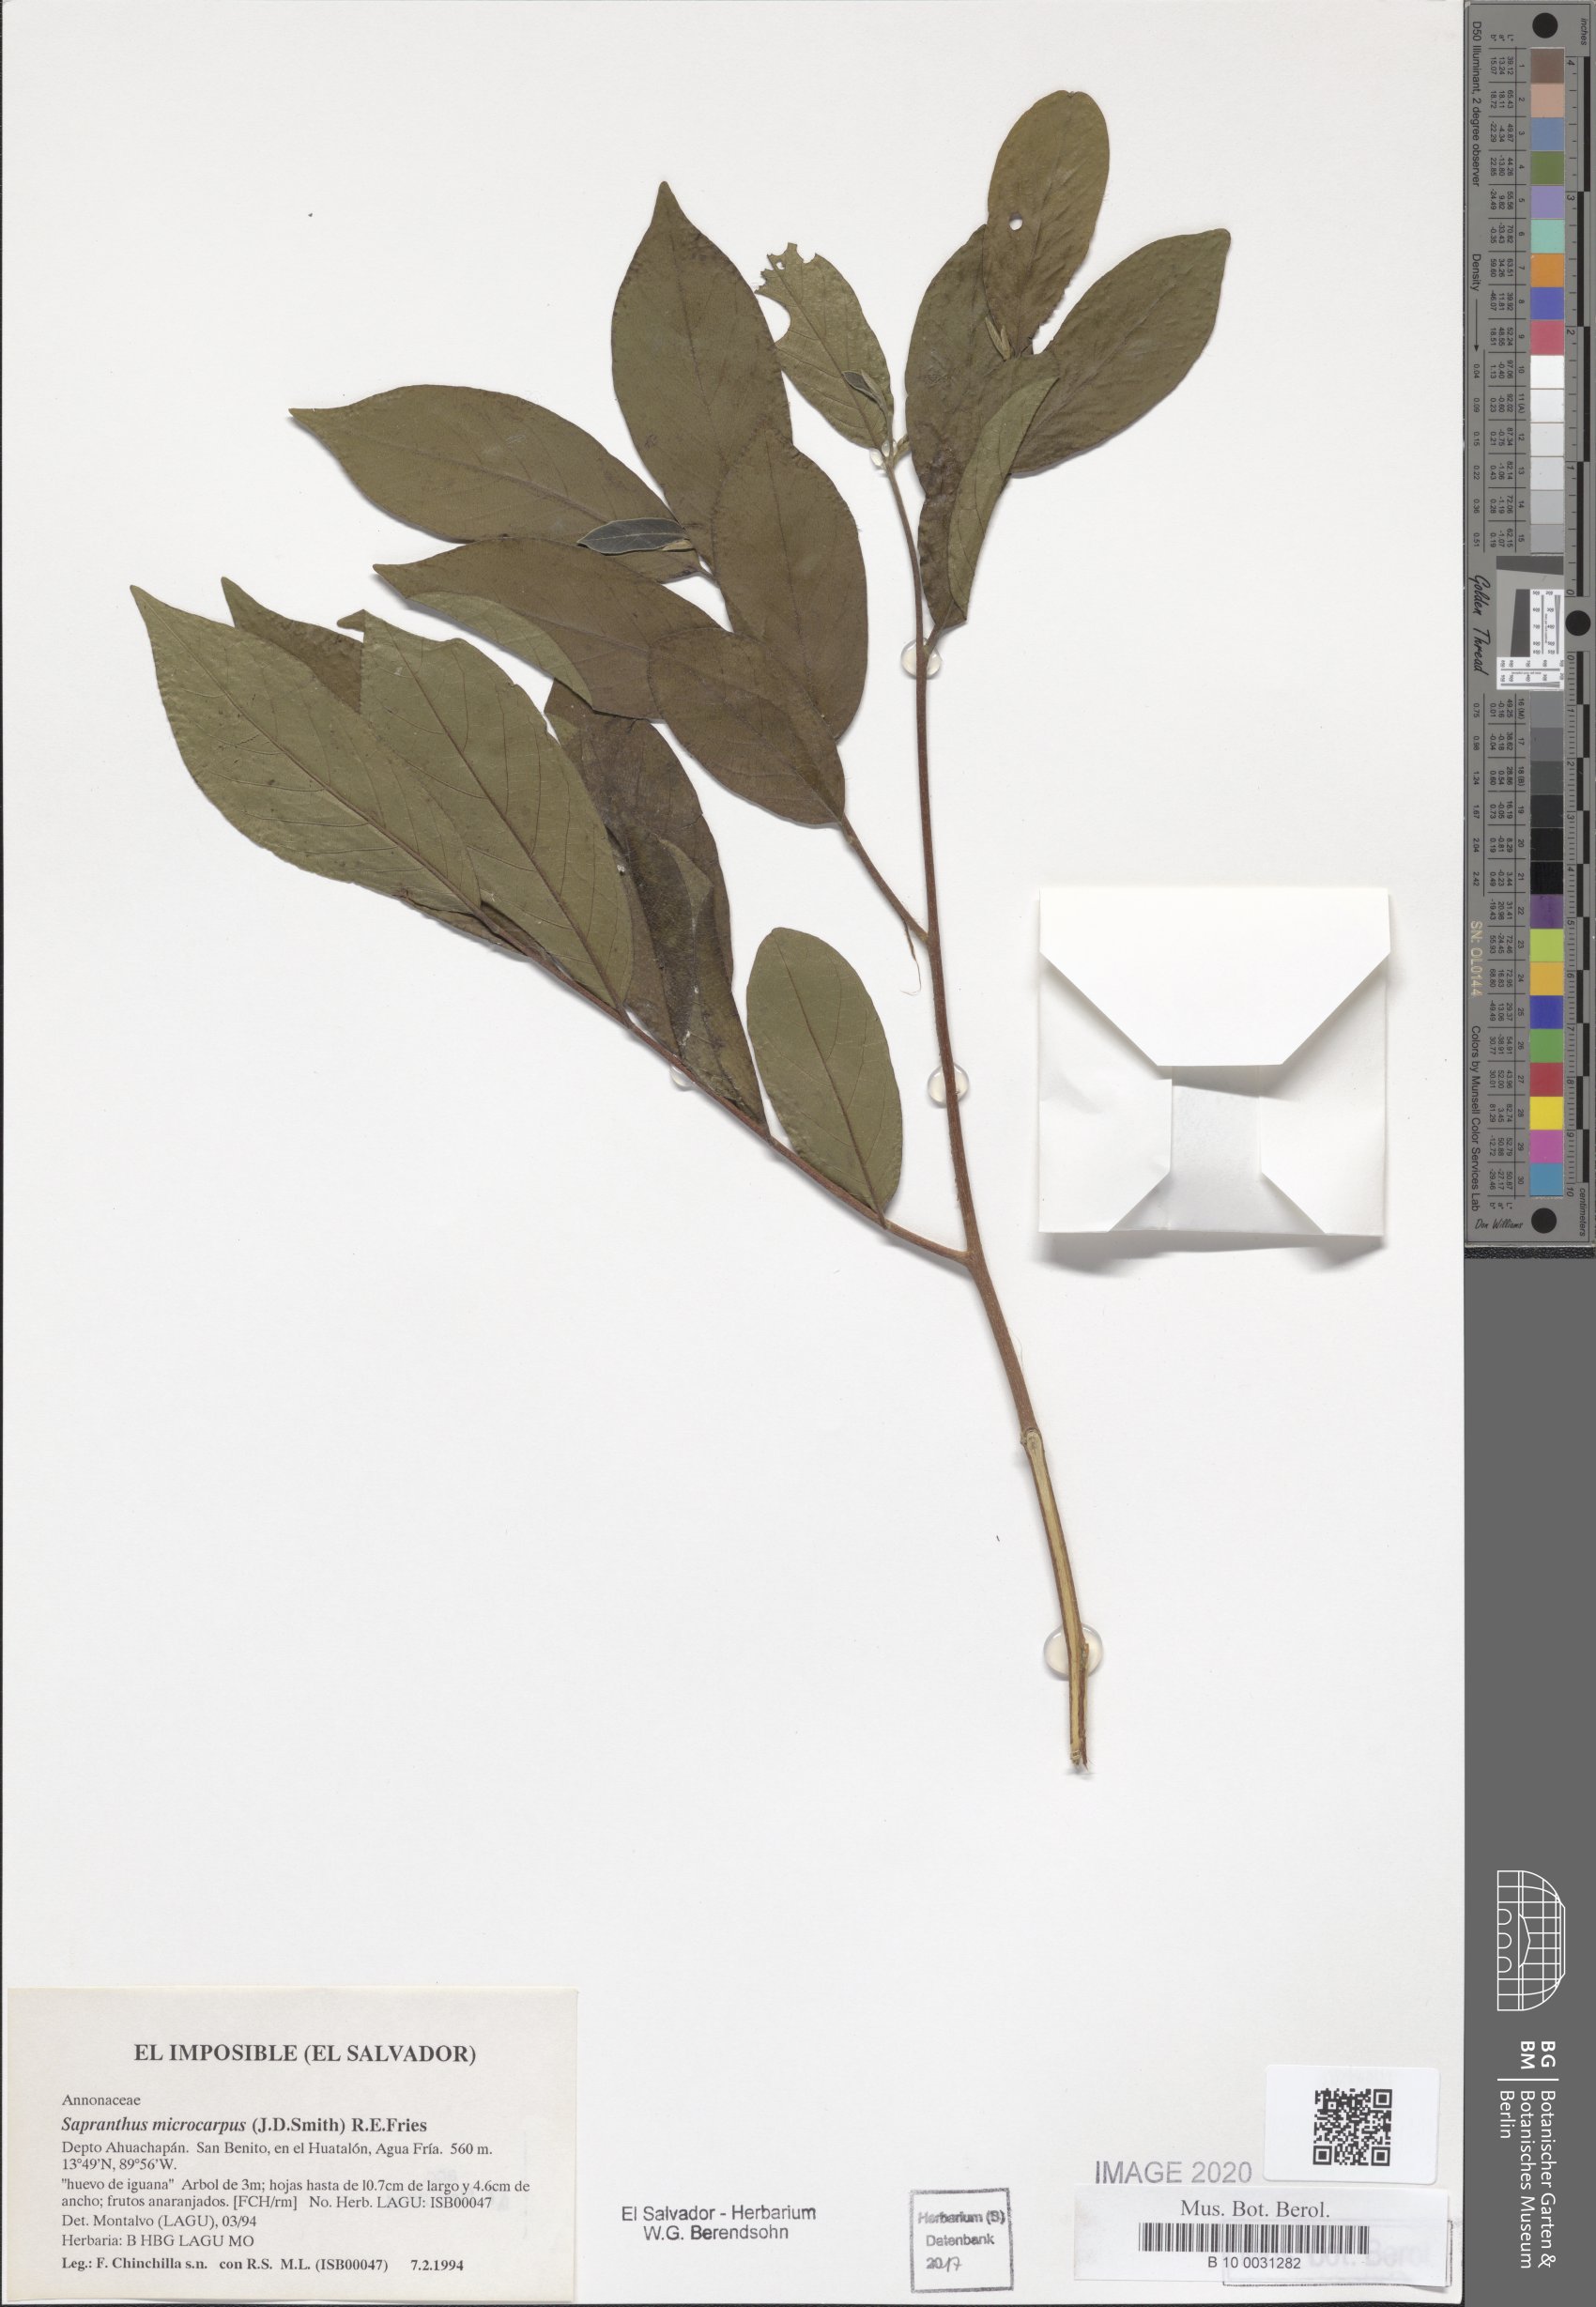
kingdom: Plantae
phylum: Tracheophyta
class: Magnoliopsida
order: Magnoliales
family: Annonaceae
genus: Sapranthus
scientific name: Sapranthus microcarpus
